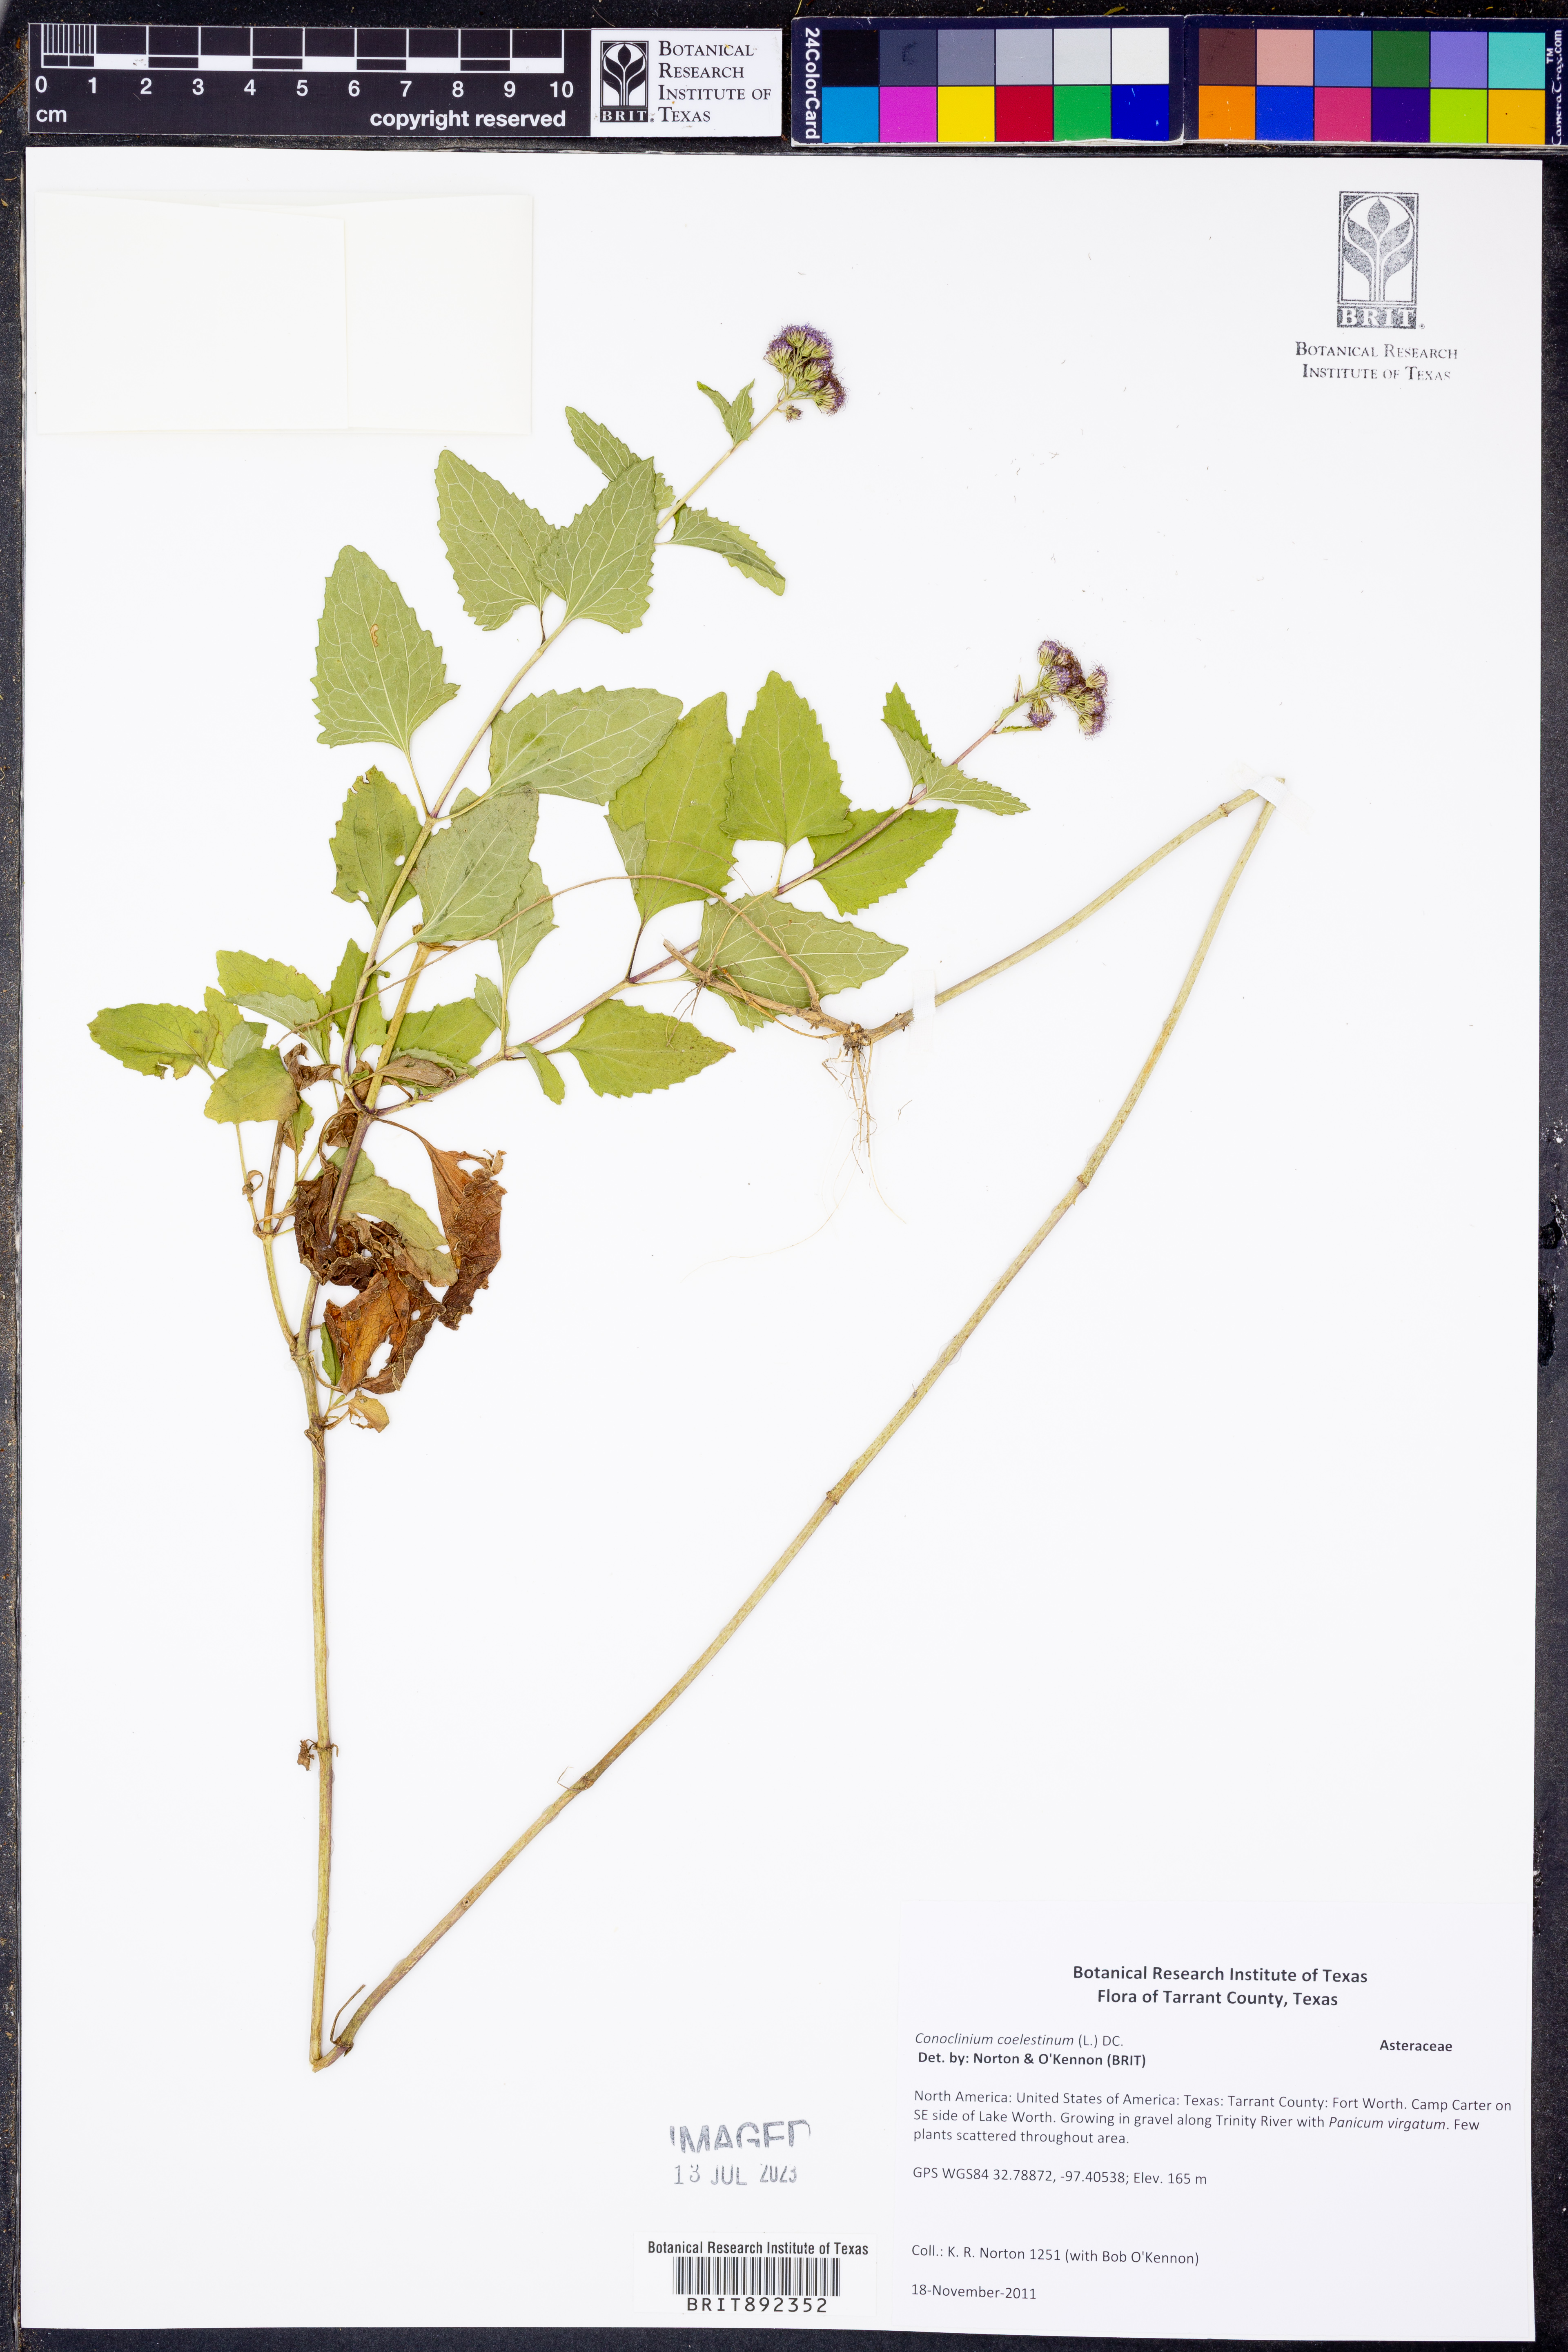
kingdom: Plantae
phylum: Tracheophyta
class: Magnoliopsida
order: Asterales
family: Asteraceae
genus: Conoclinium
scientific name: Conoclinium coelestinum
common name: Blue mistflower
